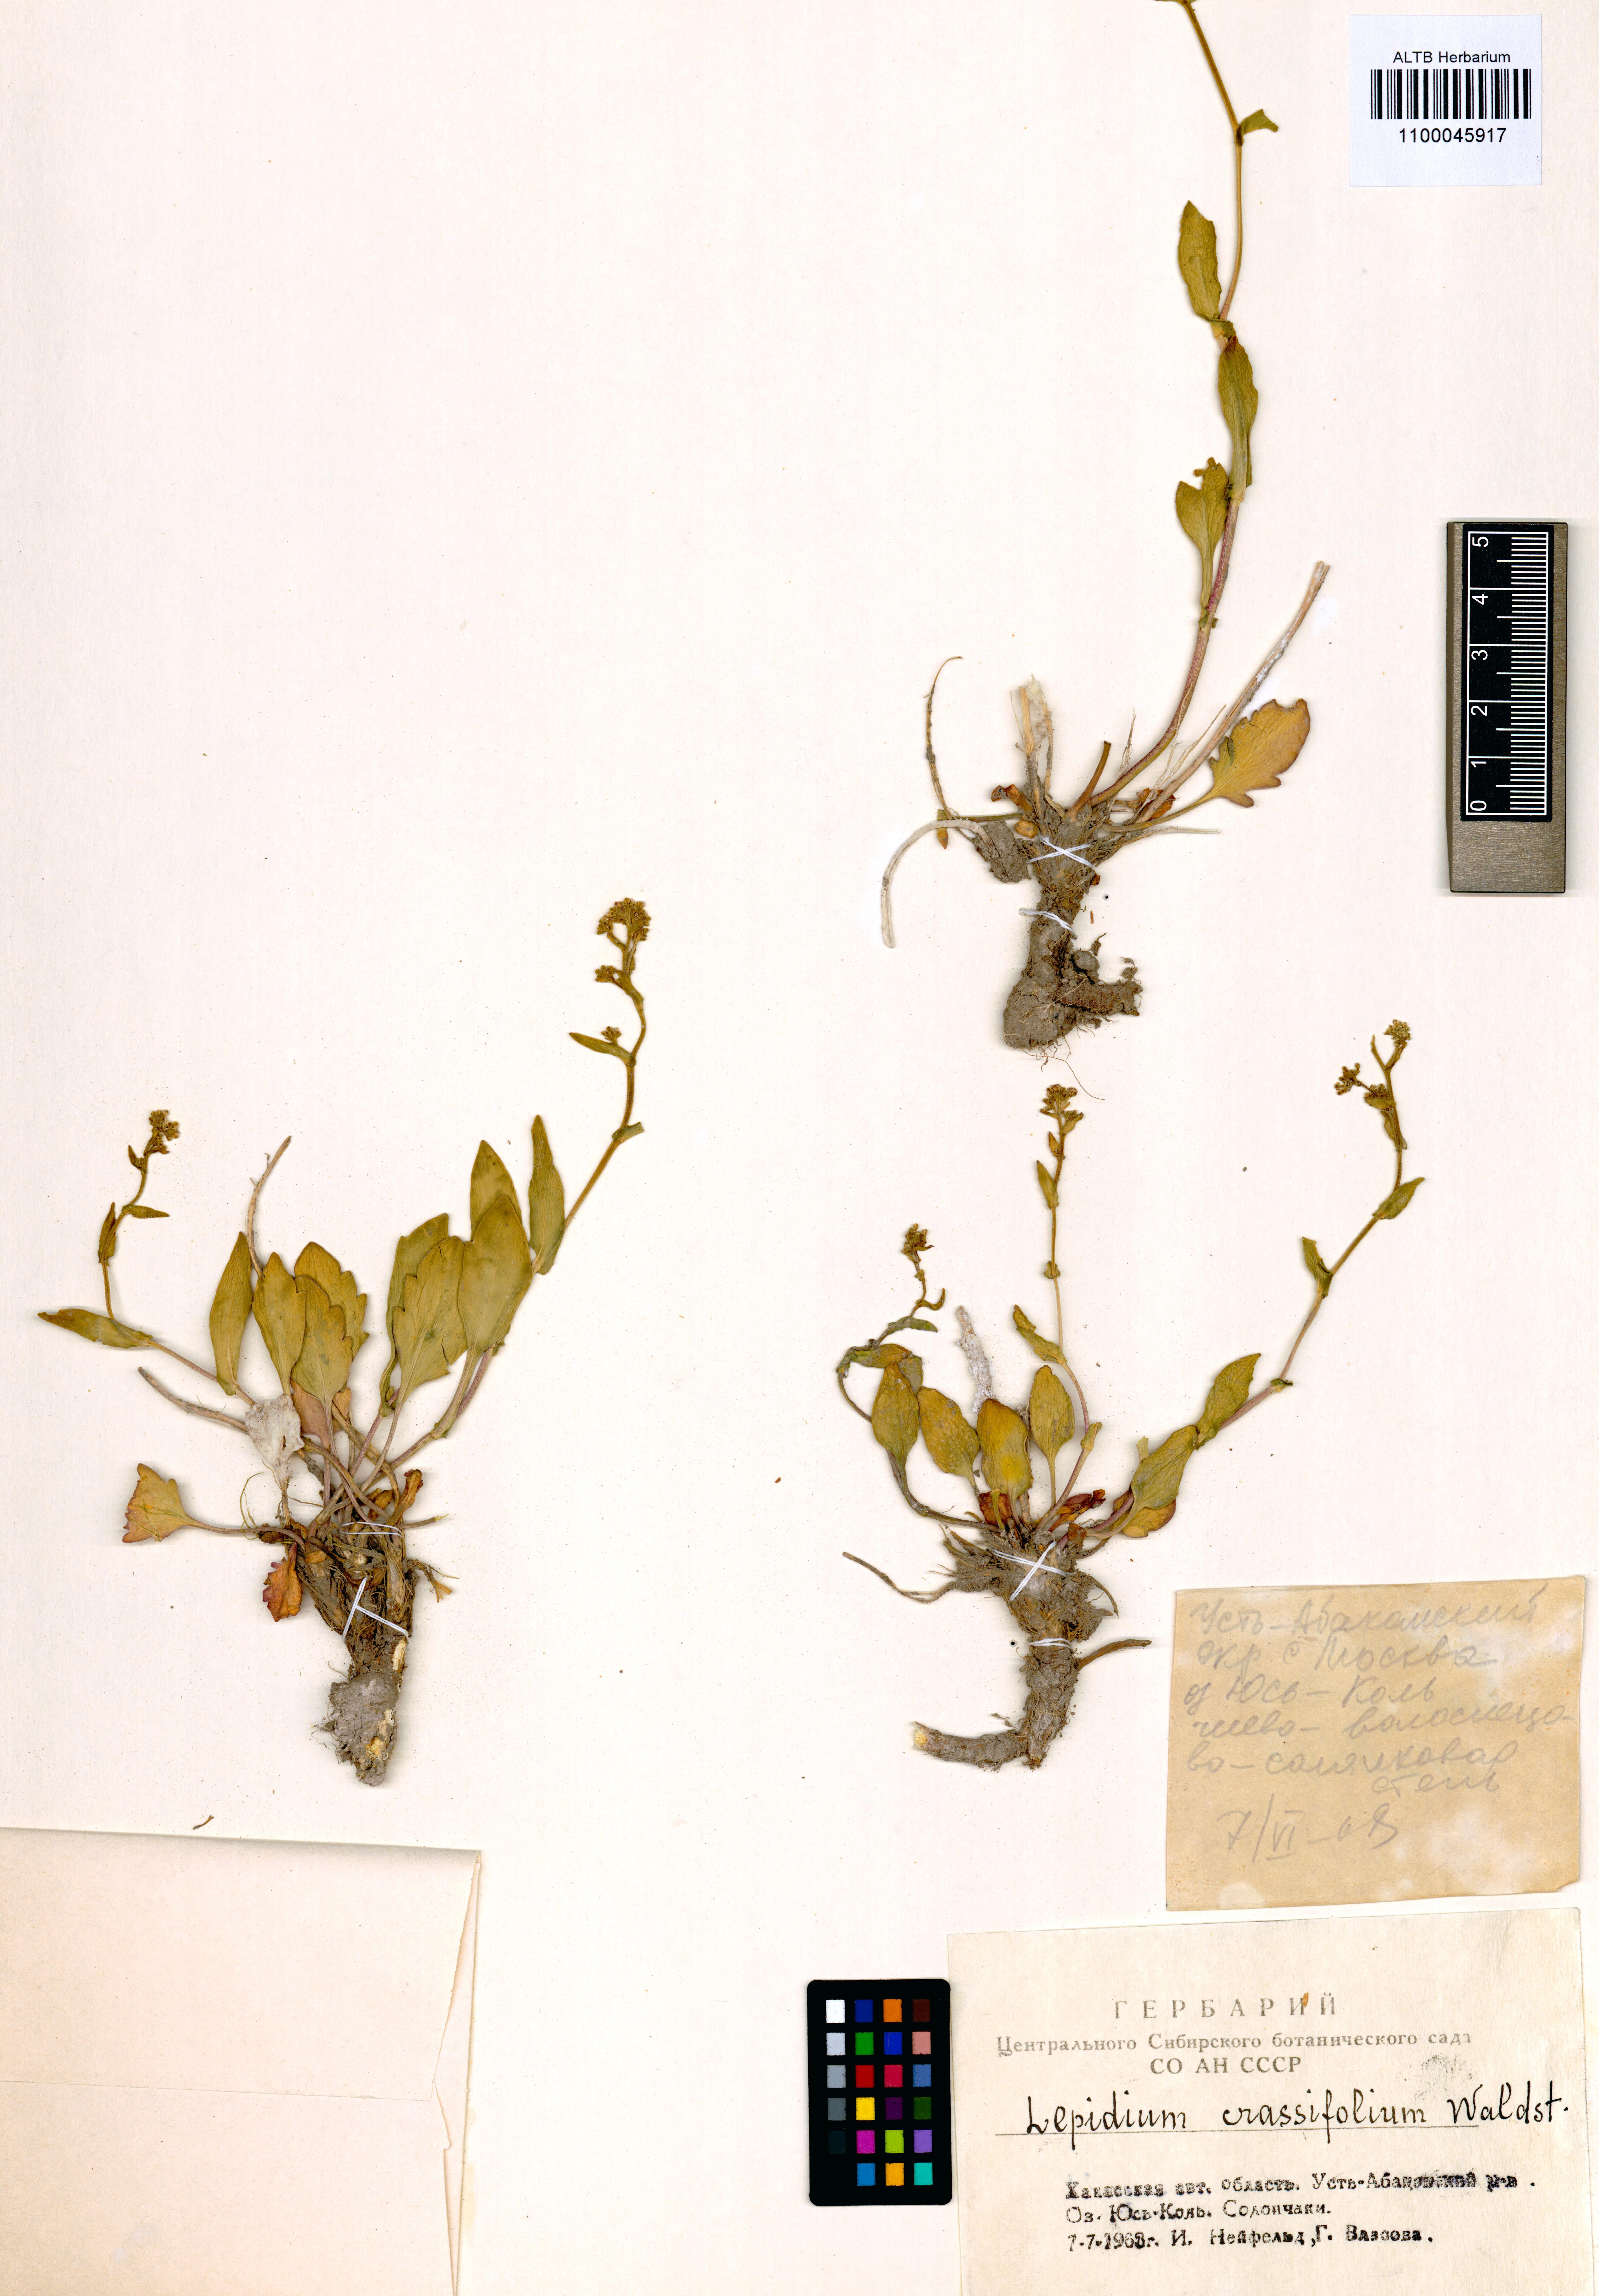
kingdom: Plantae
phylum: Tracheophyta
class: Magnoliopsida
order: Brassicales
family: Brassicaceae
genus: Lepidium
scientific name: Lepidium cartilagineum
